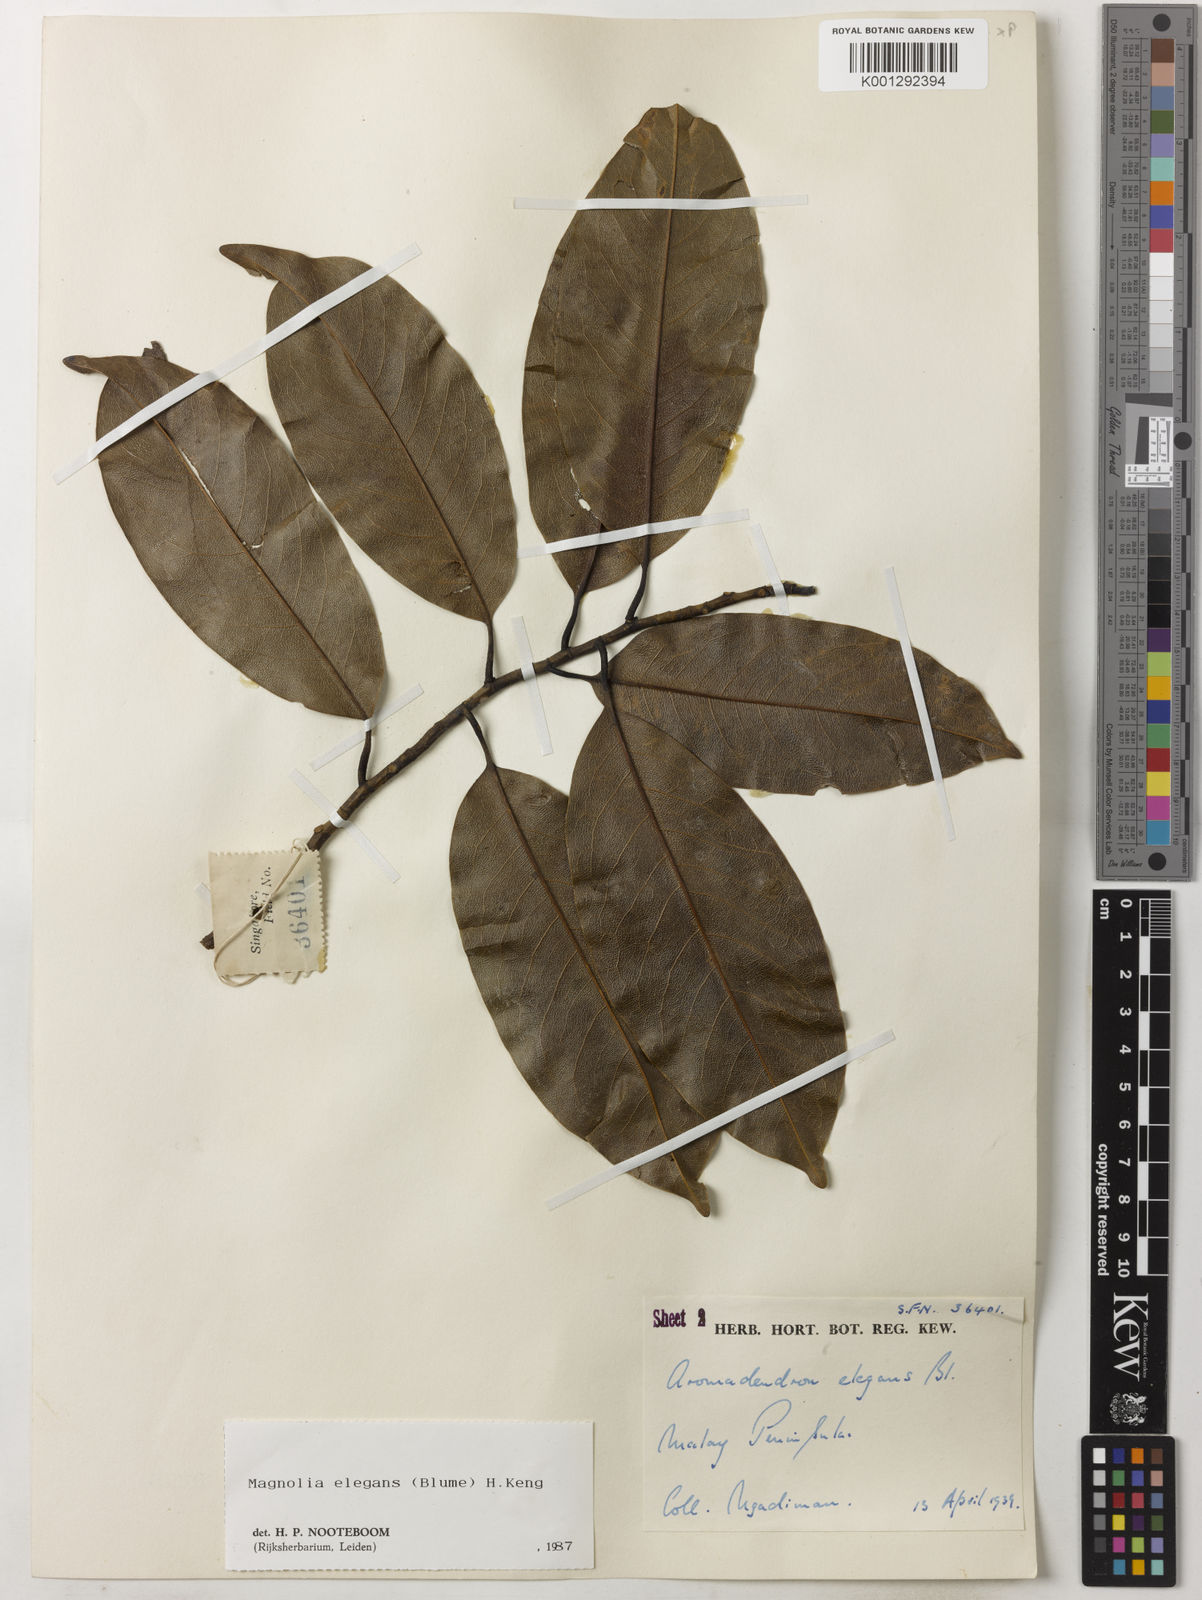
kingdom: Plantae
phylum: Tracheophyta
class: Magnoliopsida
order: Magnoliales
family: Magnoliaceae
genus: Magnolia
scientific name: Magnolia elegans
